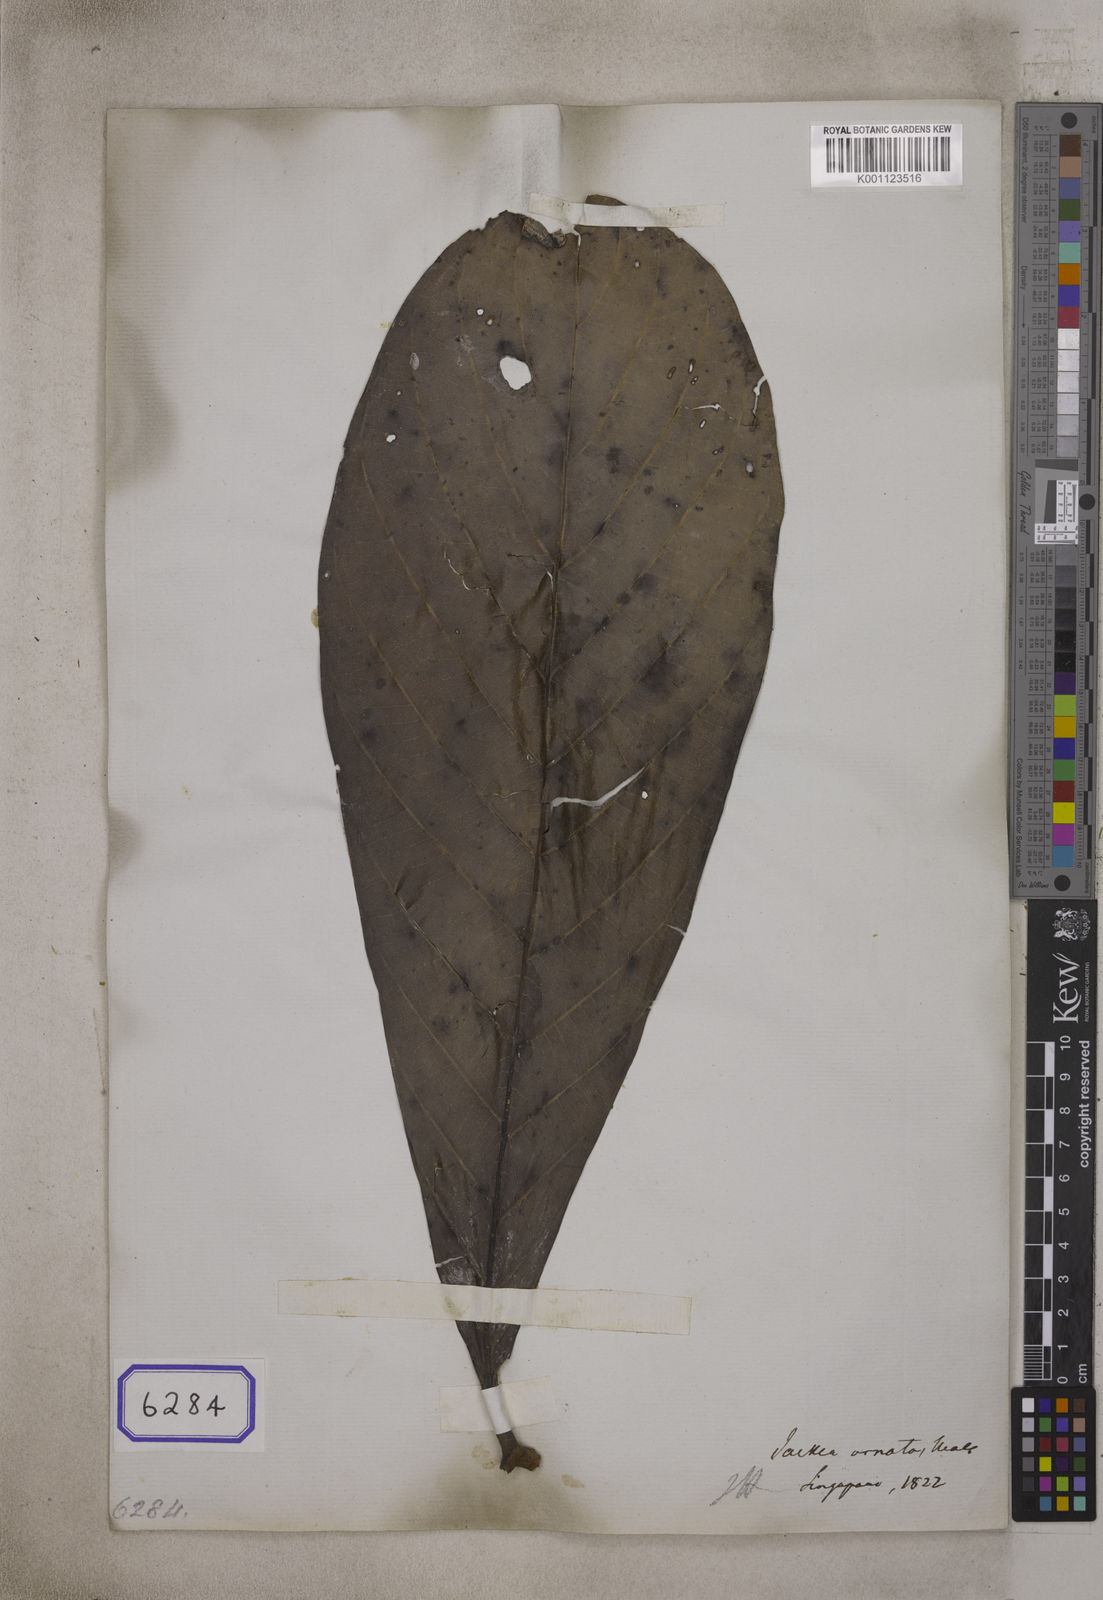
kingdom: Plantae
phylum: Tracheophyta
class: Magnoliopsida
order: Fabales
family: Polygalaceae
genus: Jackia
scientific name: Jackia
